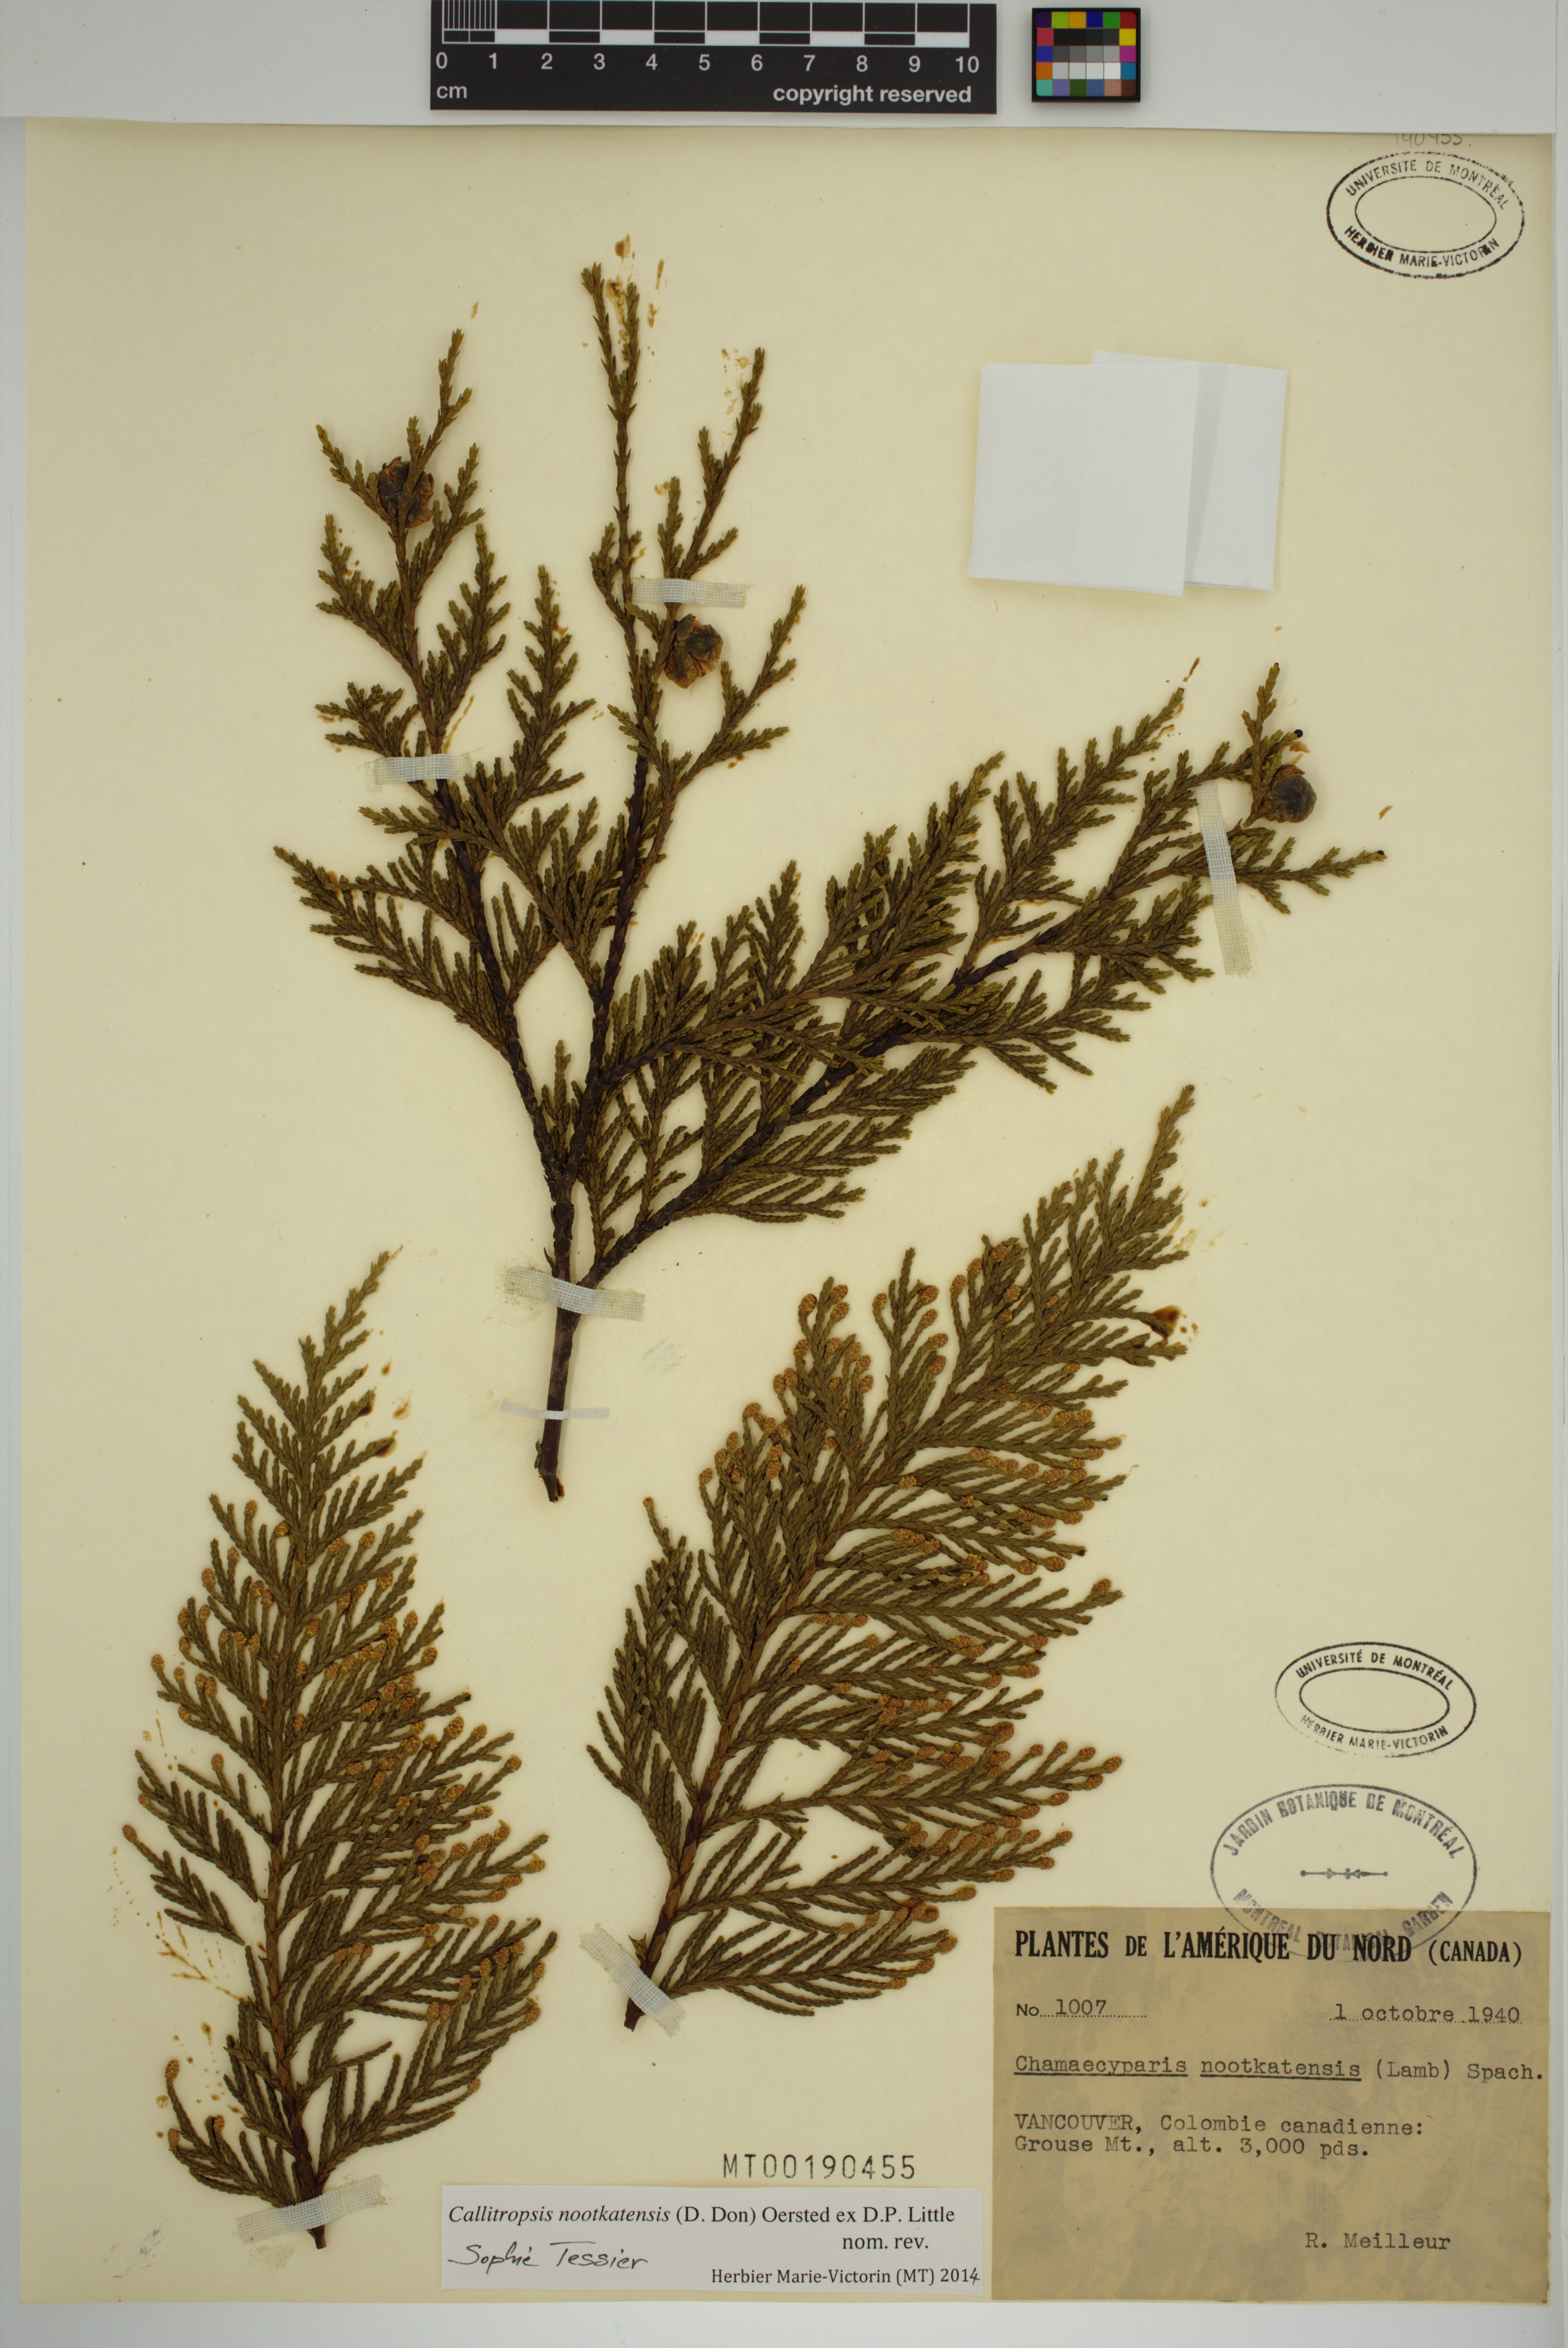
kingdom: Plantae
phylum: Tracheophyta
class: Pinopsida
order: Pinales
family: Cupressaceae
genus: Xanthocyparis
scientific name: Xanthocyparis nootkatensis
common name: Nootka cypress
